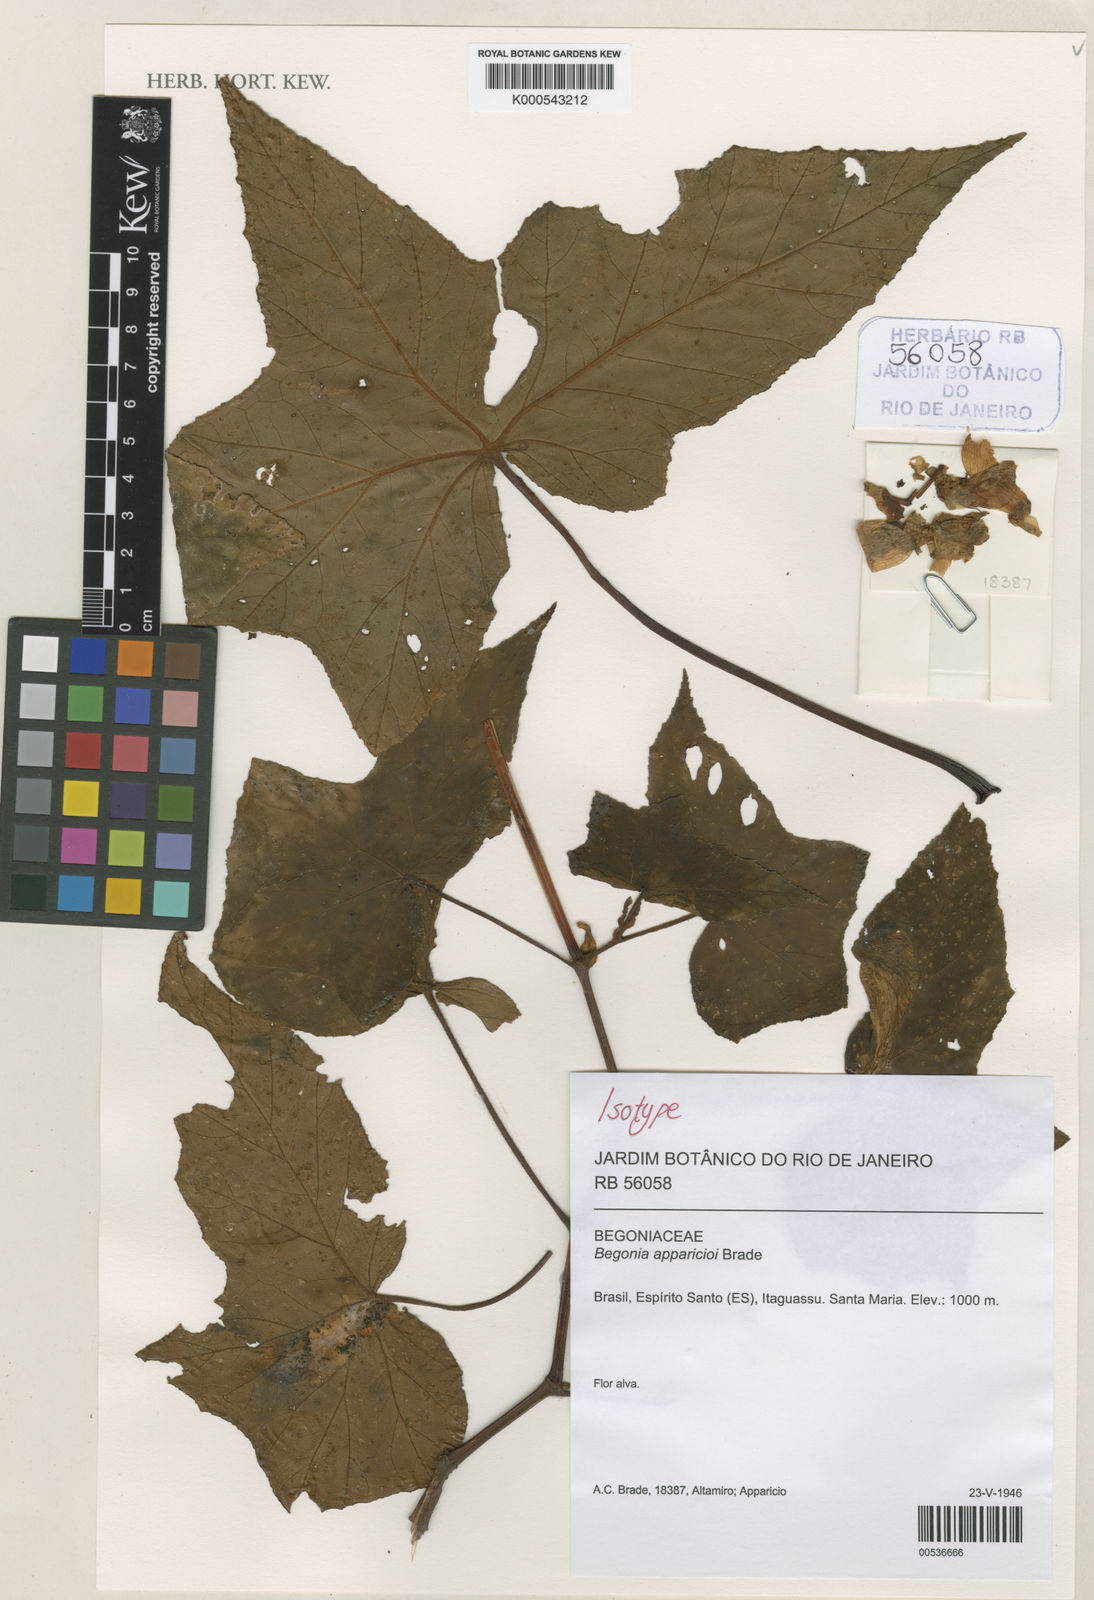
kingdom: Plantae
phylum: Tracheophyta
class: Magnoliopsida
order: Cucurbitales
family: Begoniaceae
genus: Begonia
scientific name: Begonia apparicioi
